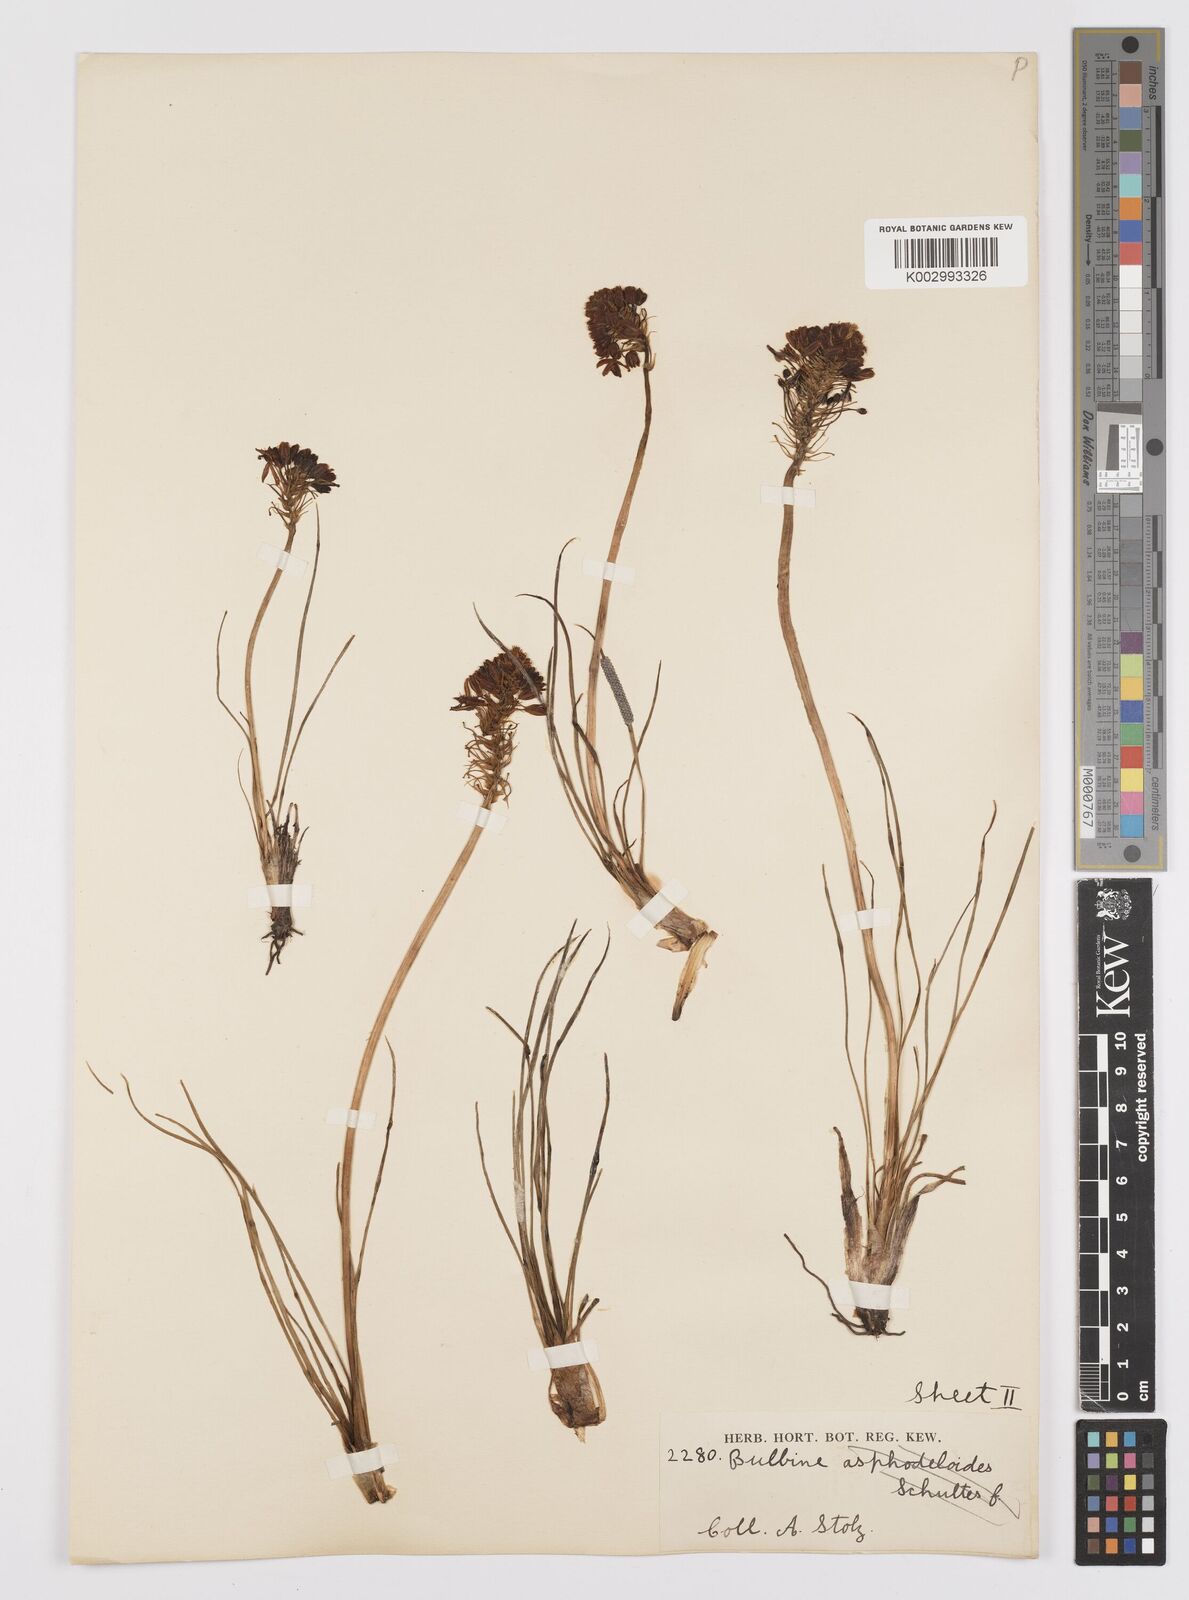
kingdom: Plantae
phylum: Tracheophyta
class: Liliopsida
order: Asparagales
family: Asphodelaceae
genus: Bulbine
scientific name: Bulbine abyssinica
